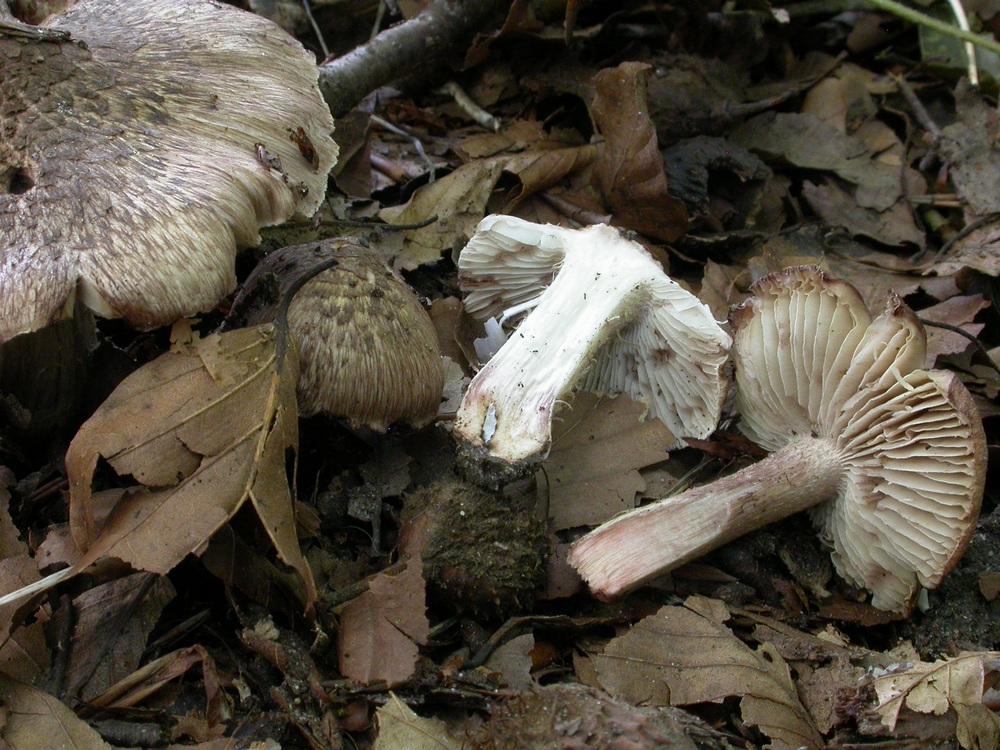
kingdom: Fungi
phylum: Basidiomycota
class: Agaricomycetes
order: Agaricales
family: Inocybaceae
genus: Inocybe
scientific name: Inocybe erinaceomorpha
